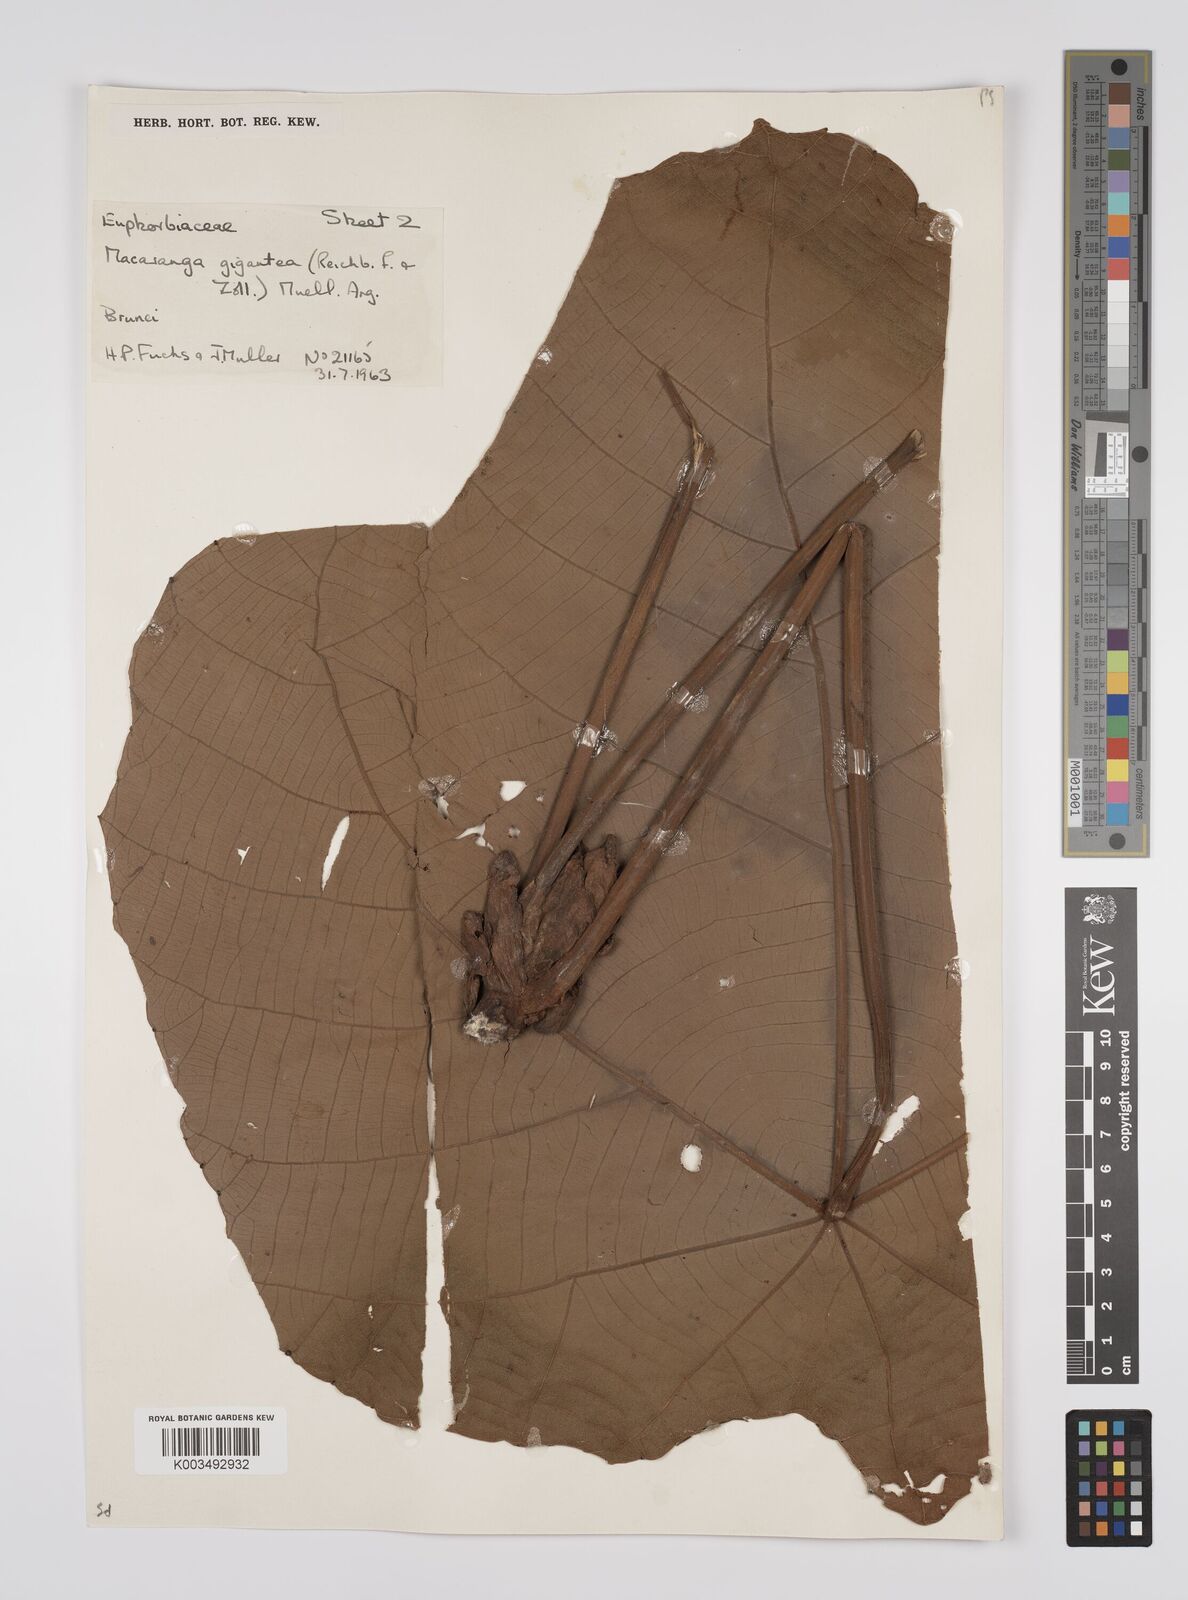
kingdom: Plantae
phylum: Tracheophyta
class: Magnoliopsida
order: Malpighiales
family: Euphorbiaceae
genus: Macaranga
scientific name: Macaranga gigantea
